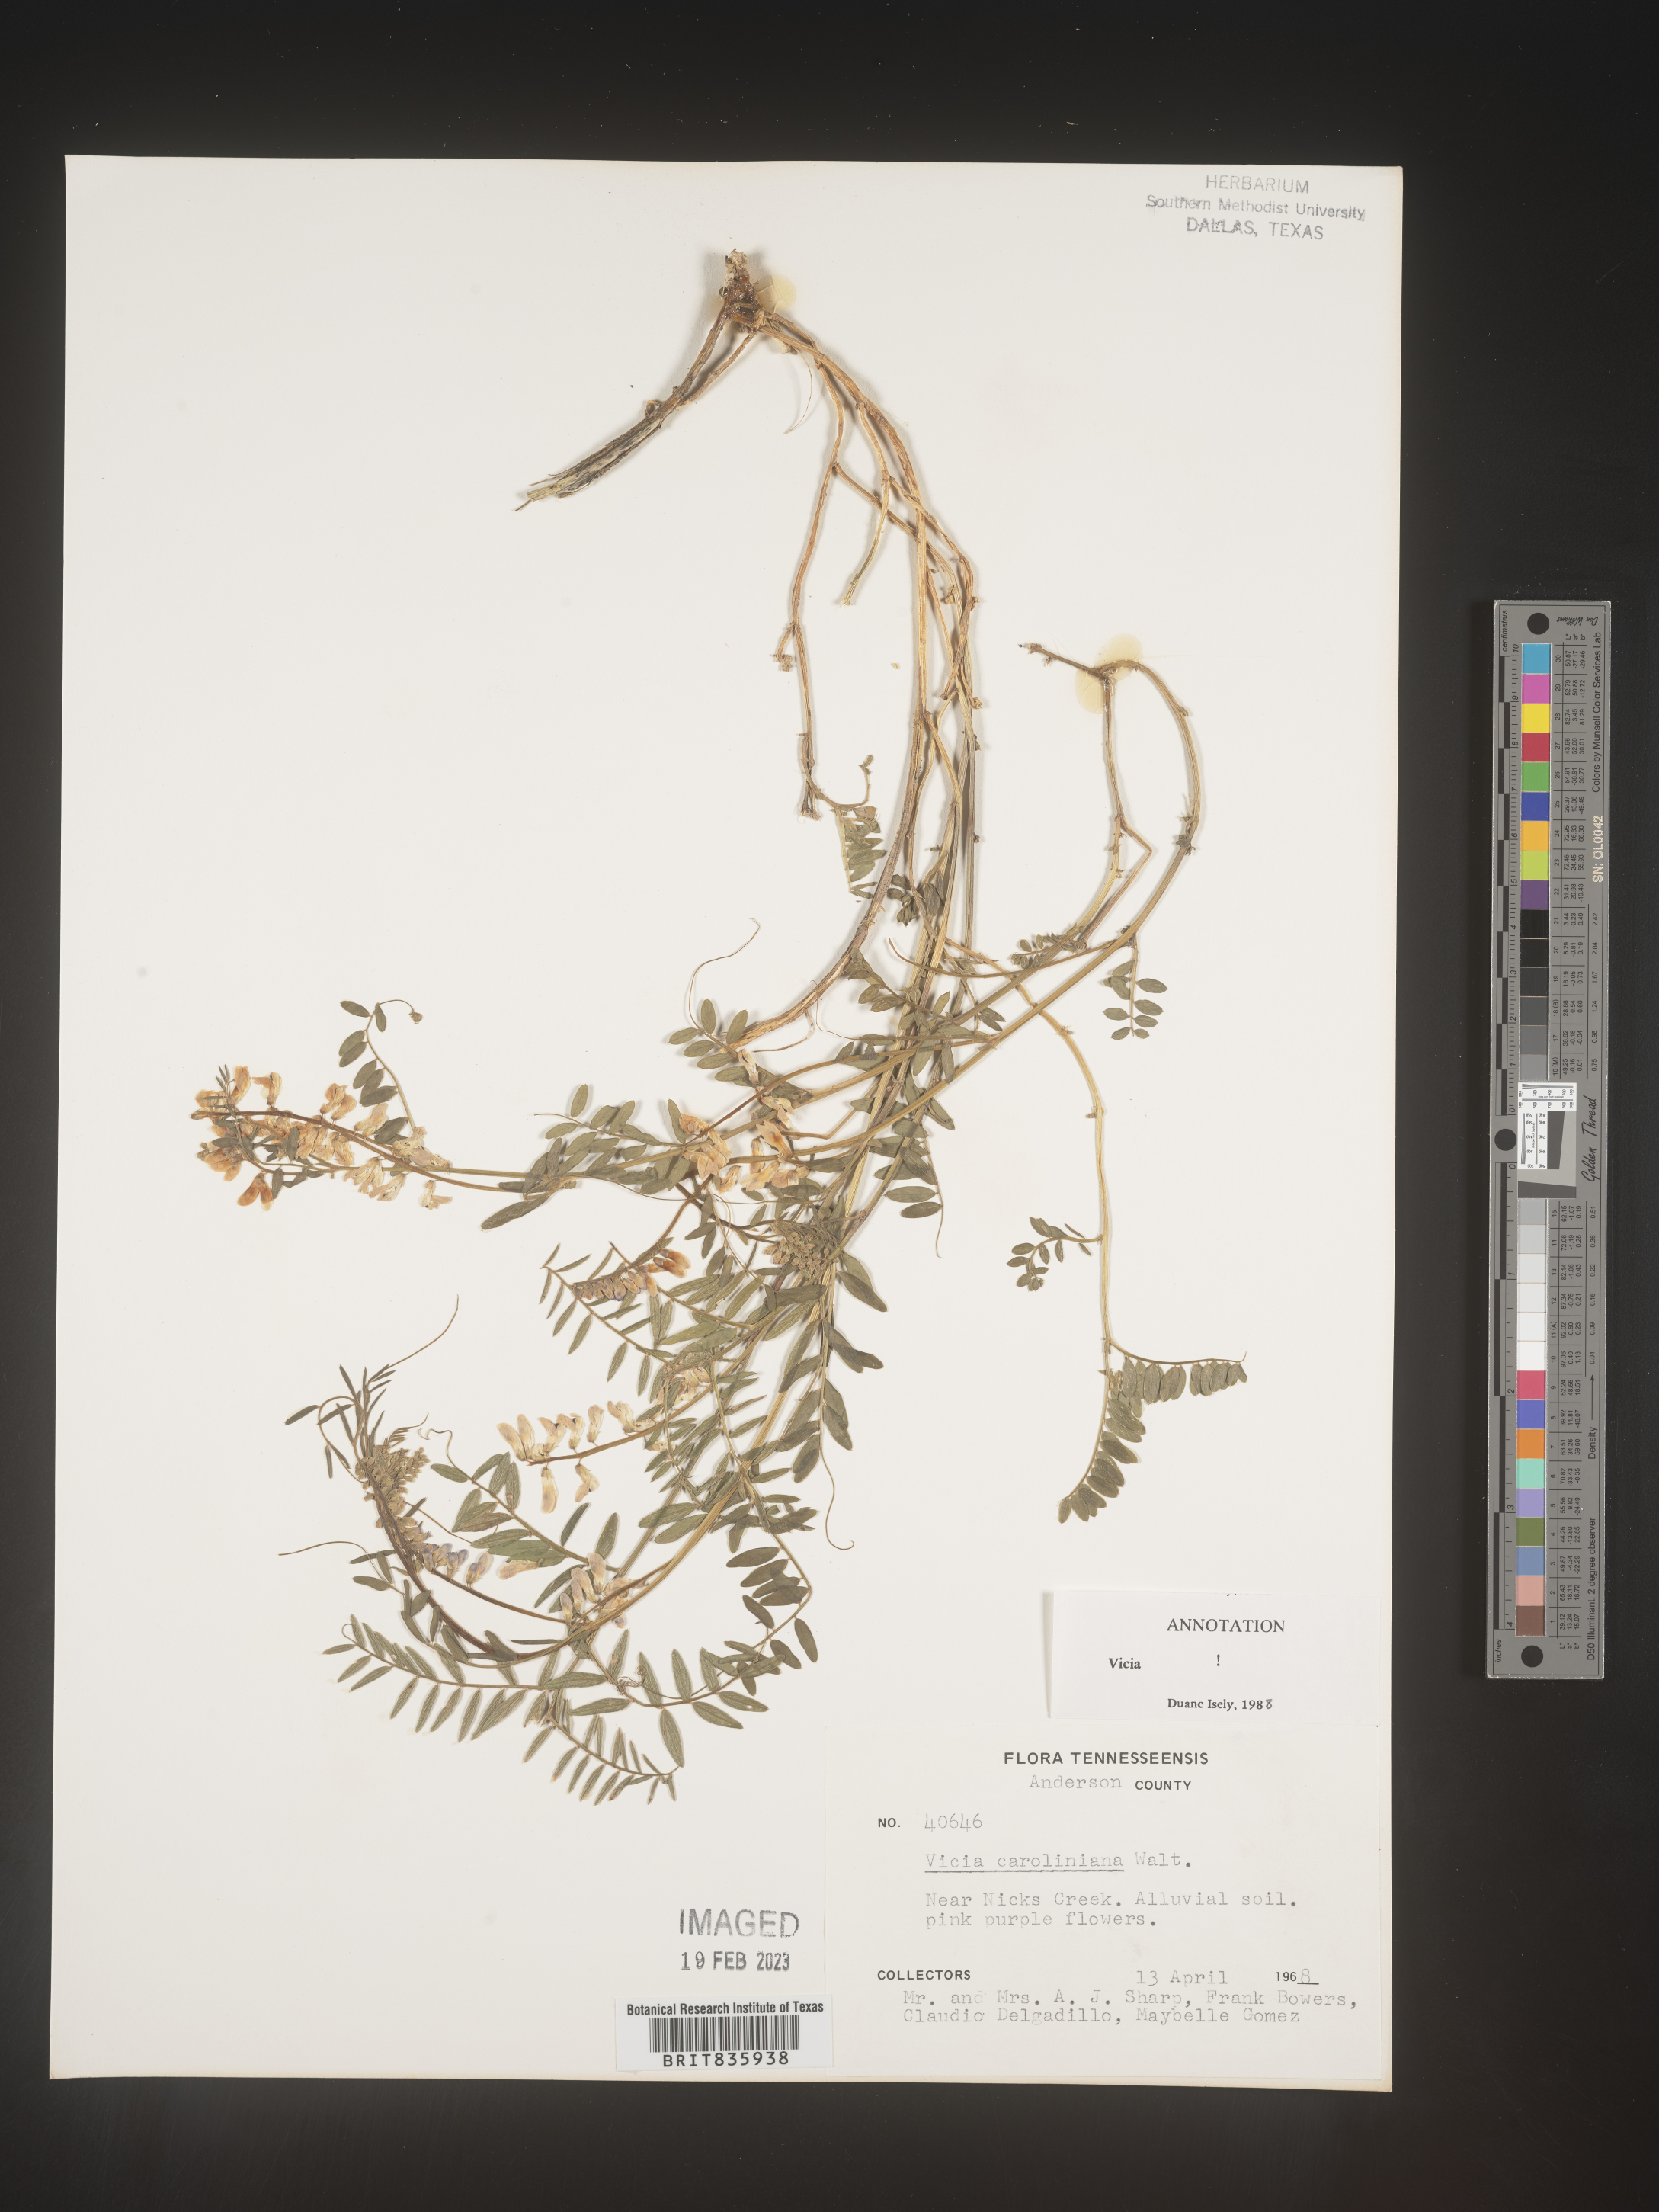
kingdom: Plantae
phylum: Tracheophyta
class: Magnoliopsida
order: Fabales
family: Fabaceae
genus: Vicia
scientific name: Vicia caroliniana
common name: Carolina vetch
